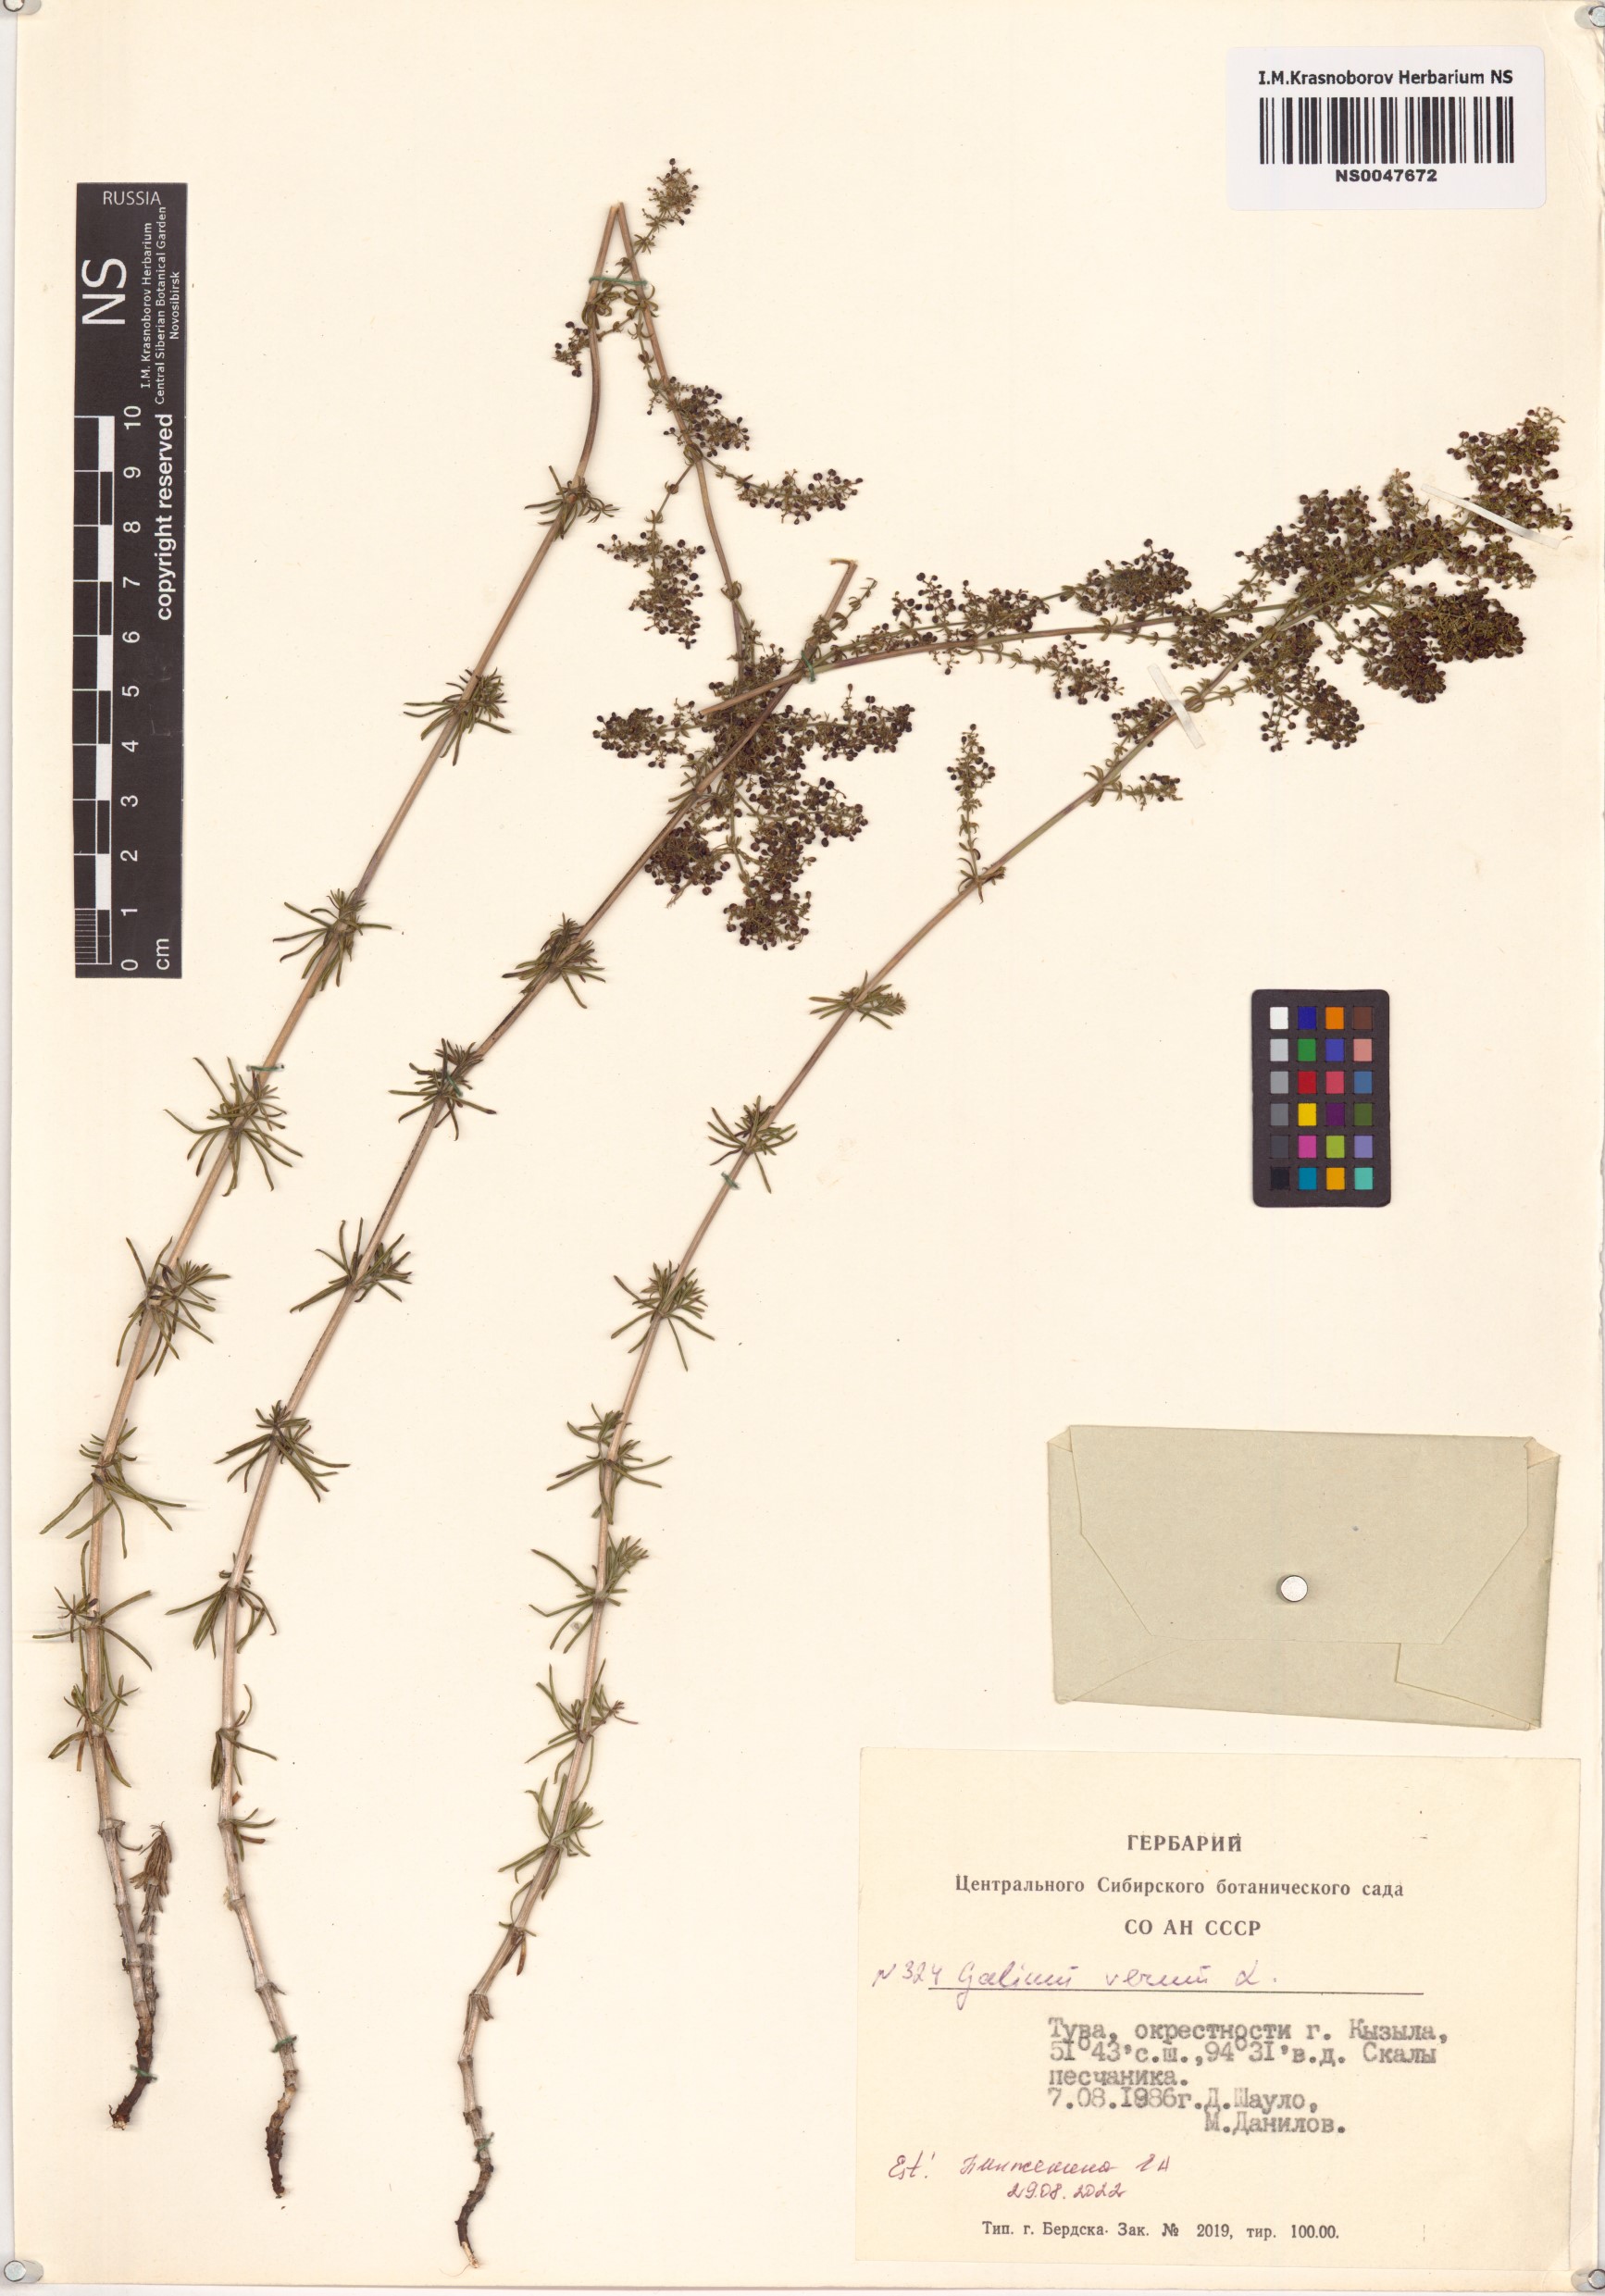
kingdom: Plantae
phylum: Tracheophyta
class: Magnoliopsida
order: Gentianales
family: Rubiaceae
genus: Galium
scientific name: Galium verum
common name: Lady's bedstraw
